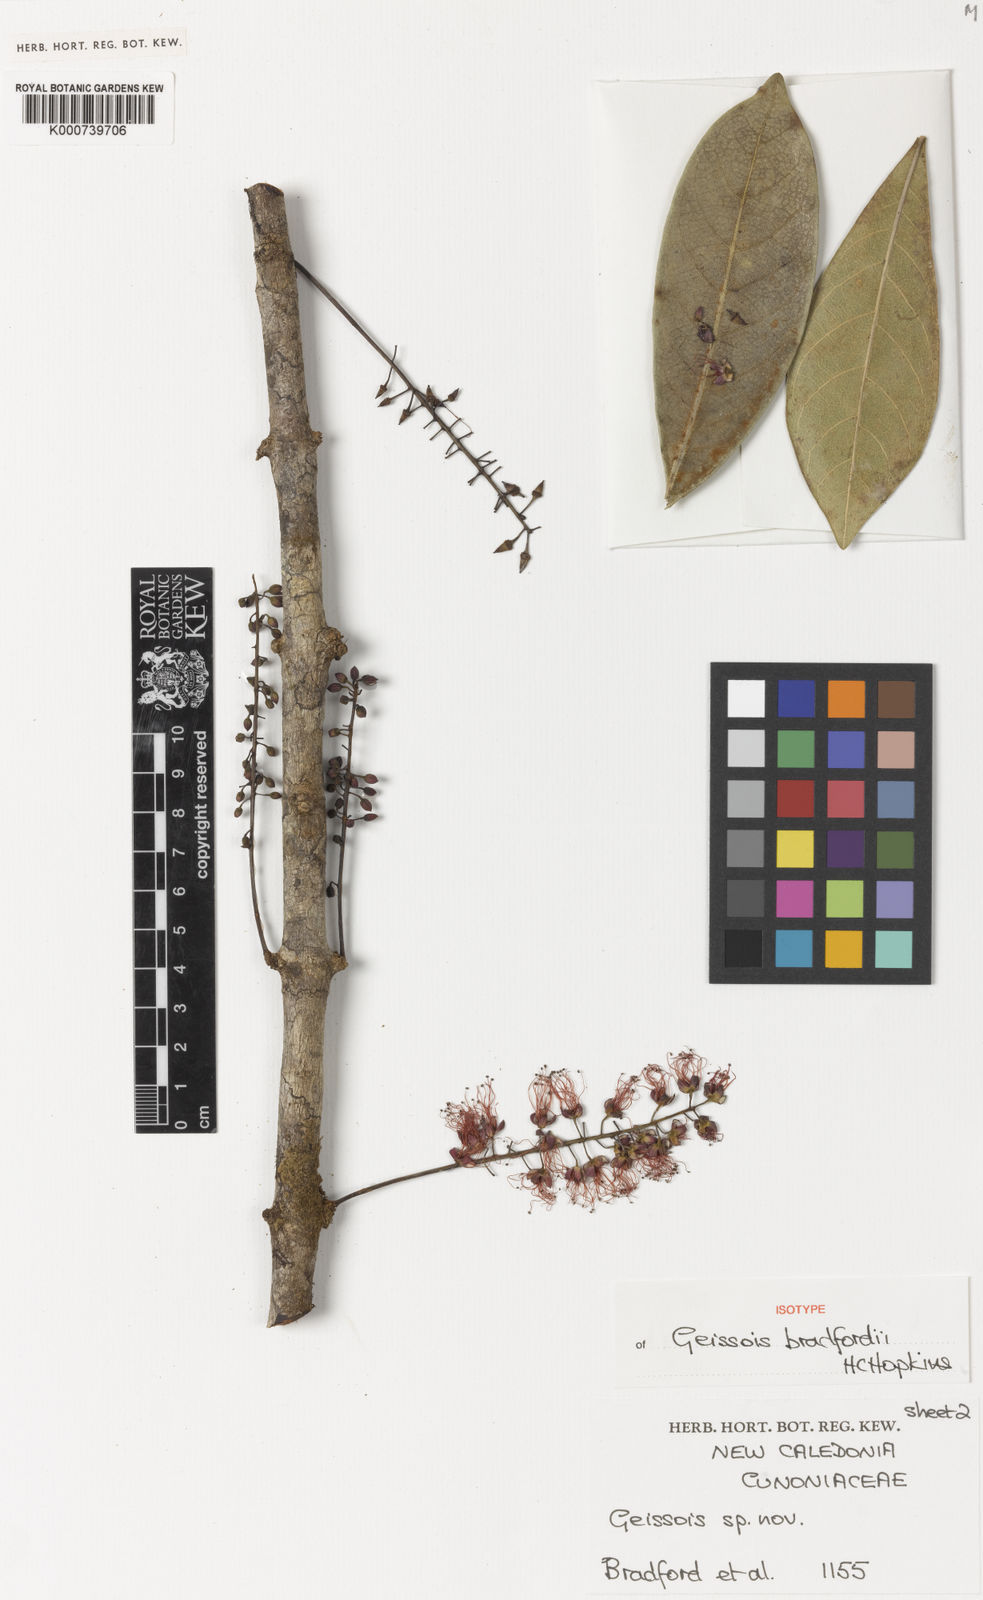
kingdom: Plantae
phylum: Tracheophyta
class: Magnoliopsida
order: Oxalidales
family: Cunoniaceae
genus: Geissois
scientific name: Geissois bradfordii
